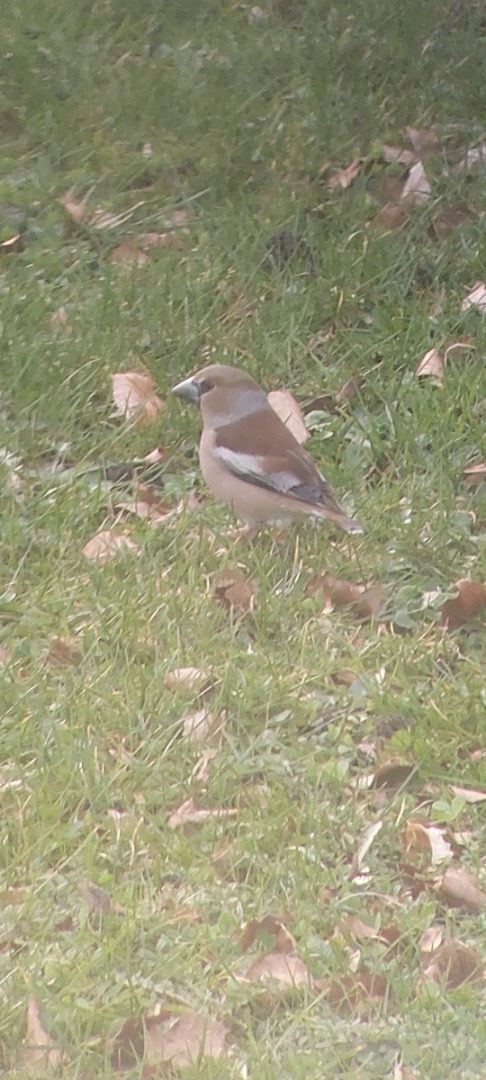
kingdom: Animalia
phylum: Chordata
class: Aves
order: Passeriformes
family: Fringillidae
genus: Coccothraustes
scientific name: Coccothraustes coccothraustes
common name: Kernebider
